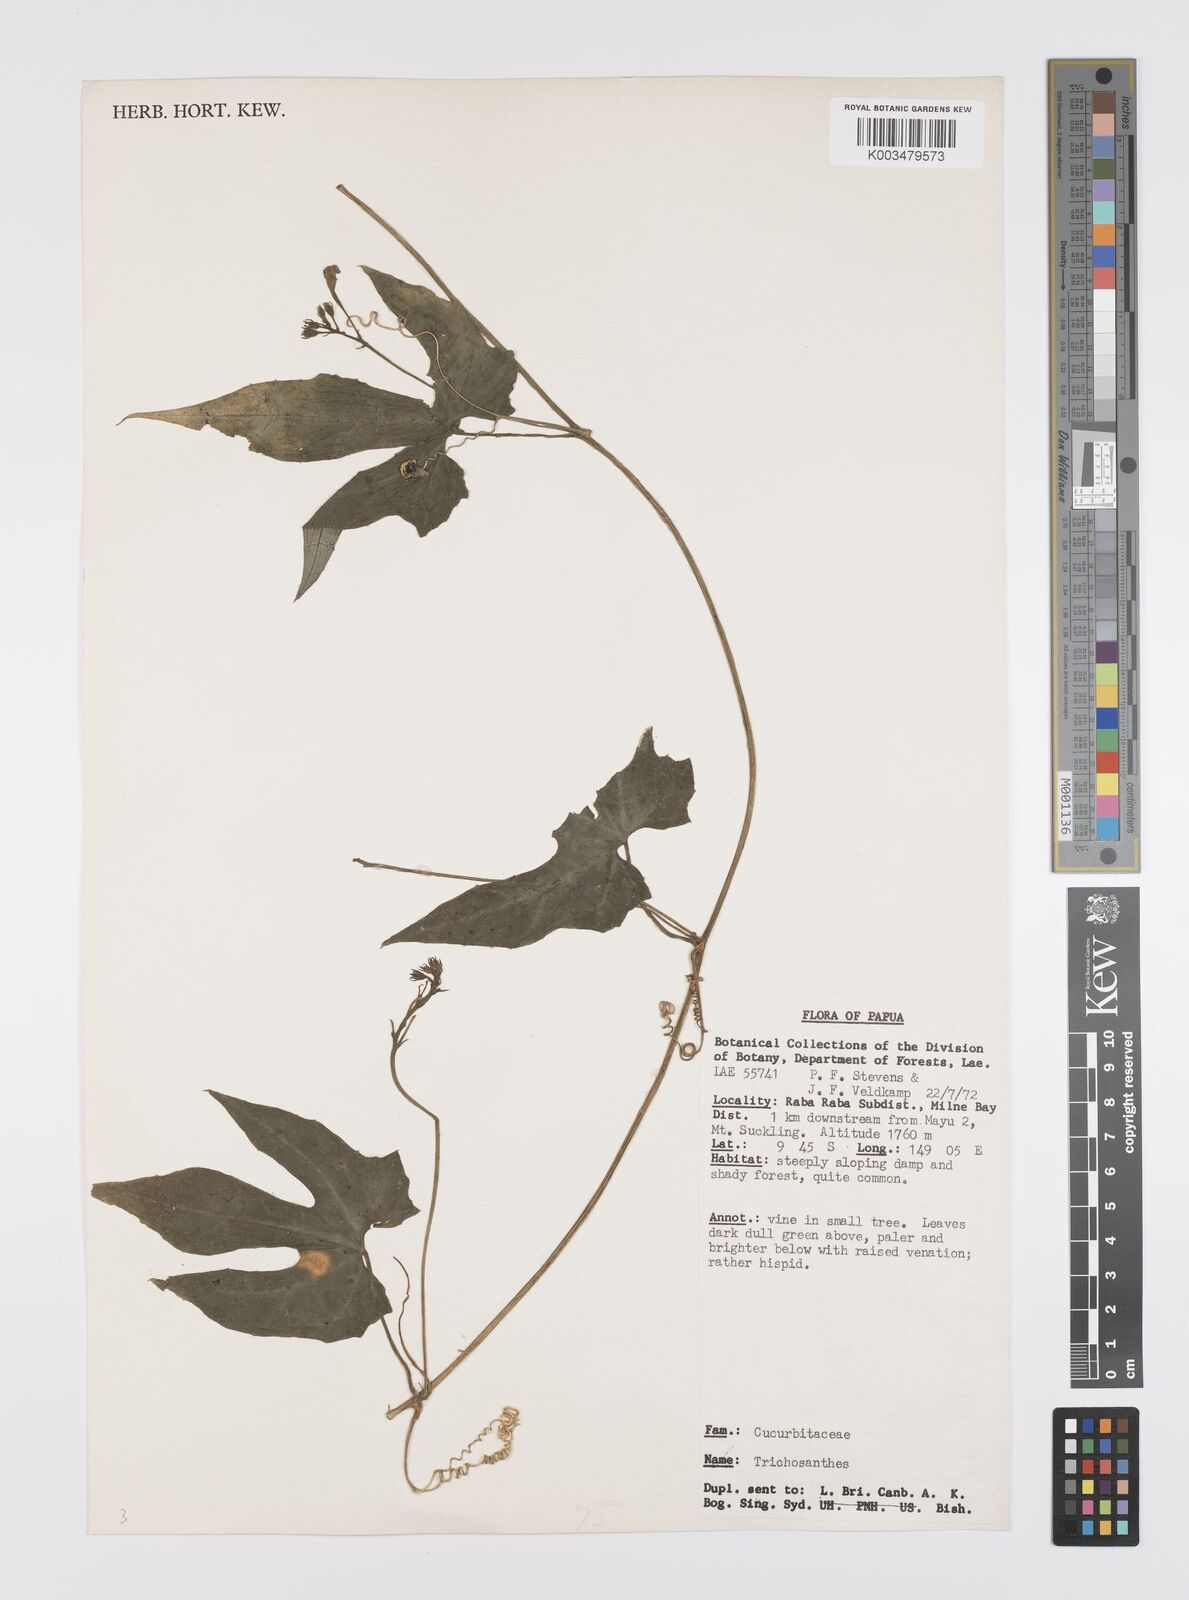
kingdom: Plantae
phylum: Tracheophyta
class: Magnoliopsida
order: Cucurbitales
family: Cucurbitaceae
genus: Trichosanthes
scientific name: Trichosanthes ovigera
